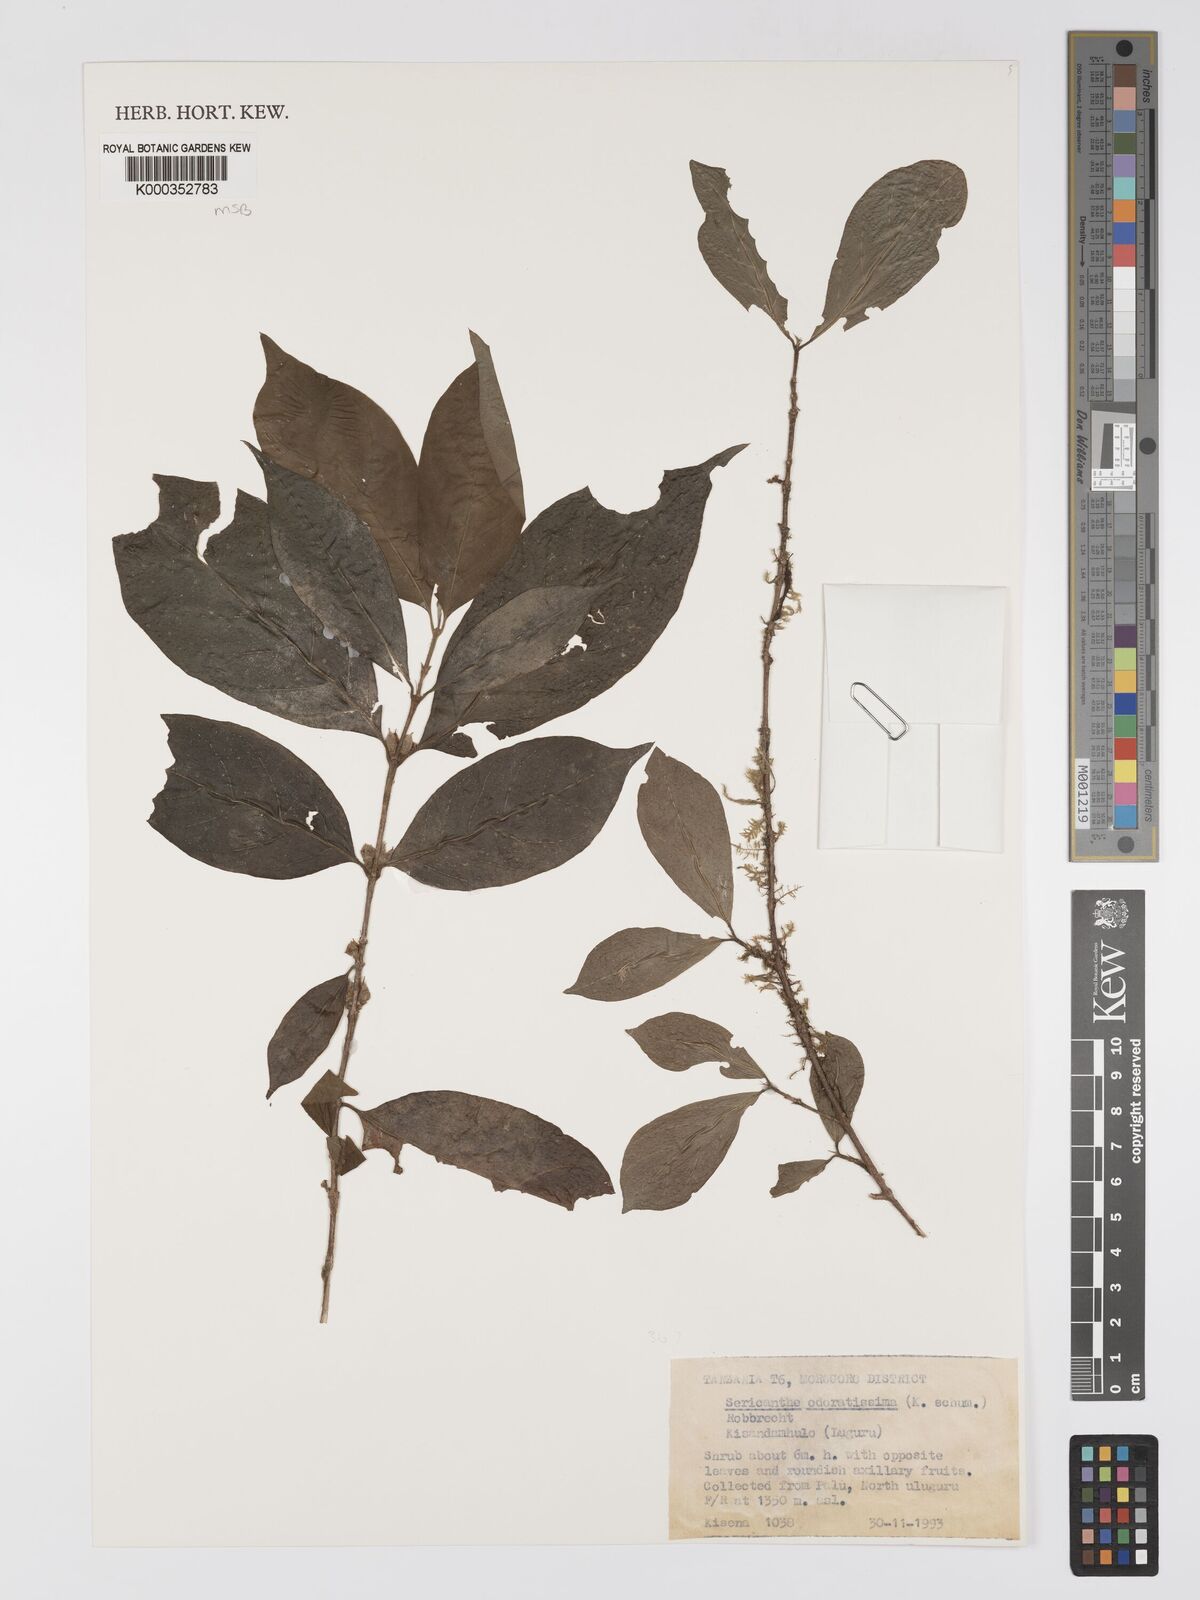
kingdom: Plantae
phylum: Tracheophyta
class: Magnoliopsida
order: Gentianales
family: Rubiaceae
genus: Sericanthe
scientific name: Sericanthe odoratissima
